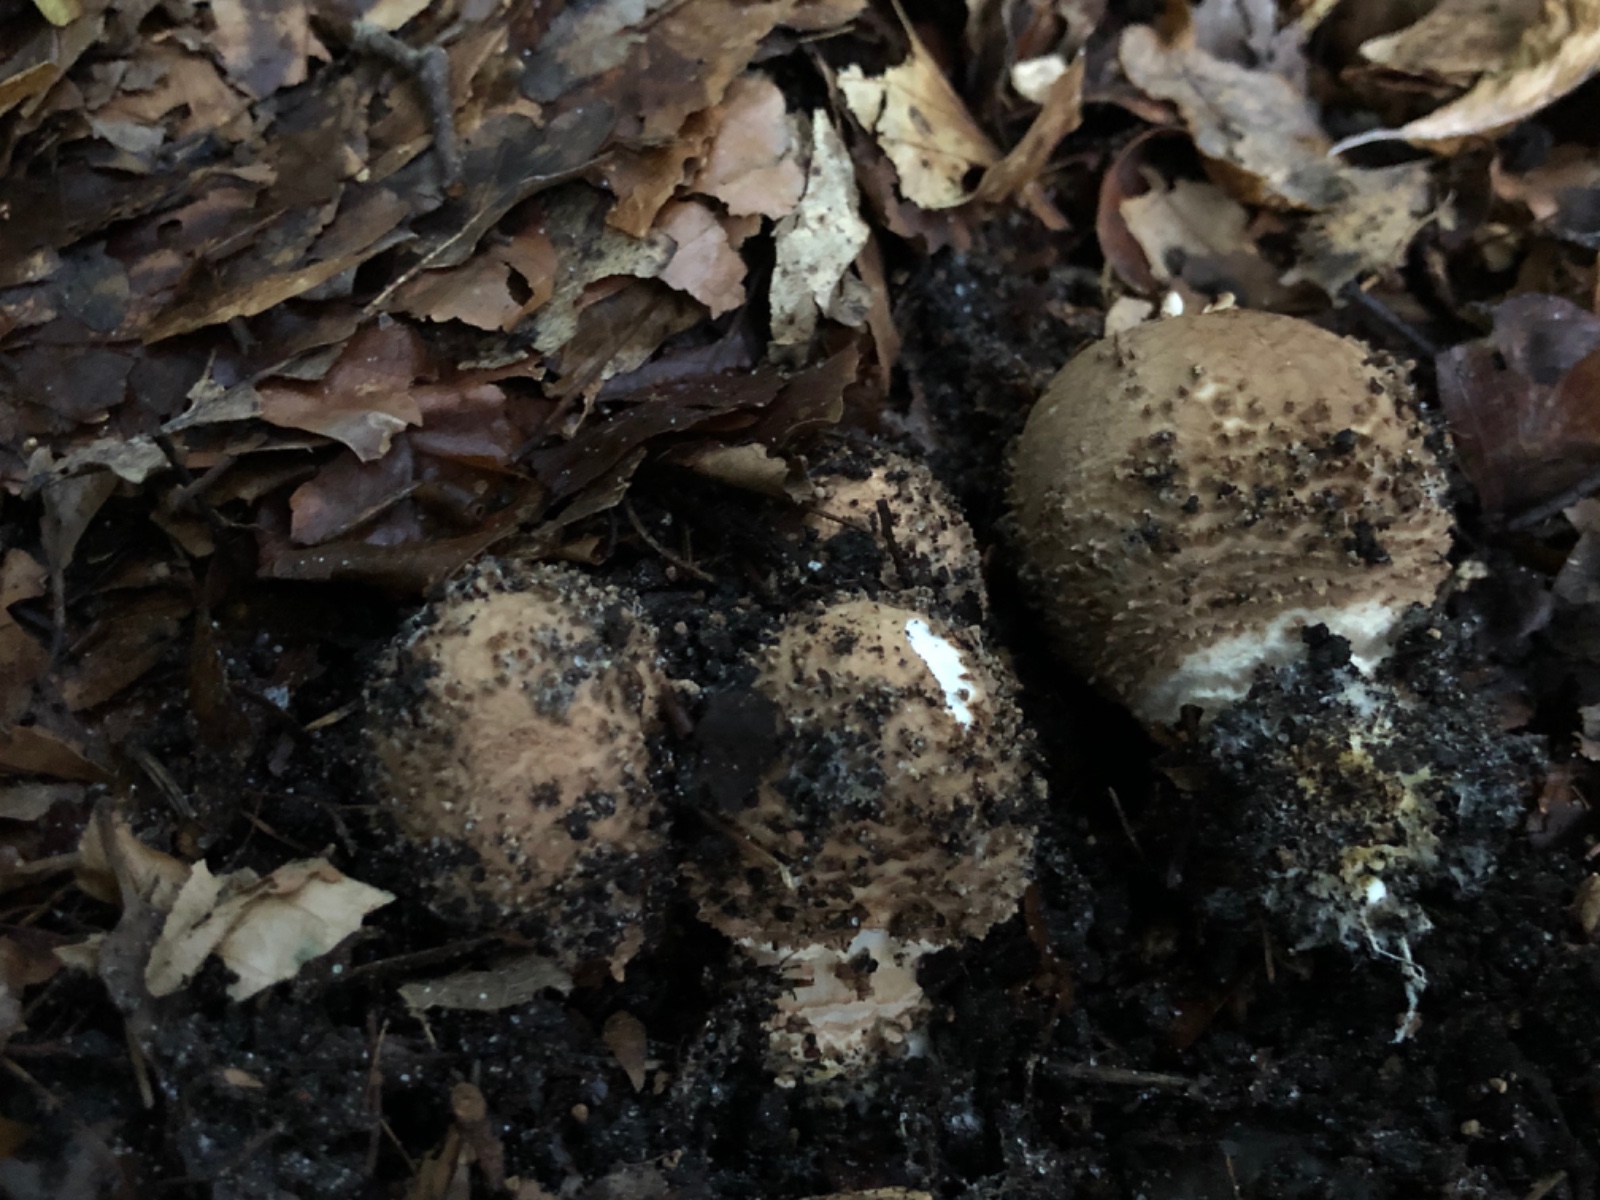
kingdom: Fungi
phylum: Basidiomycota
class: Agaricomycetes
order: Agaricales
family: Agaricaceae
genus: Echinoderma
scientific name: Echinoderma asperum
